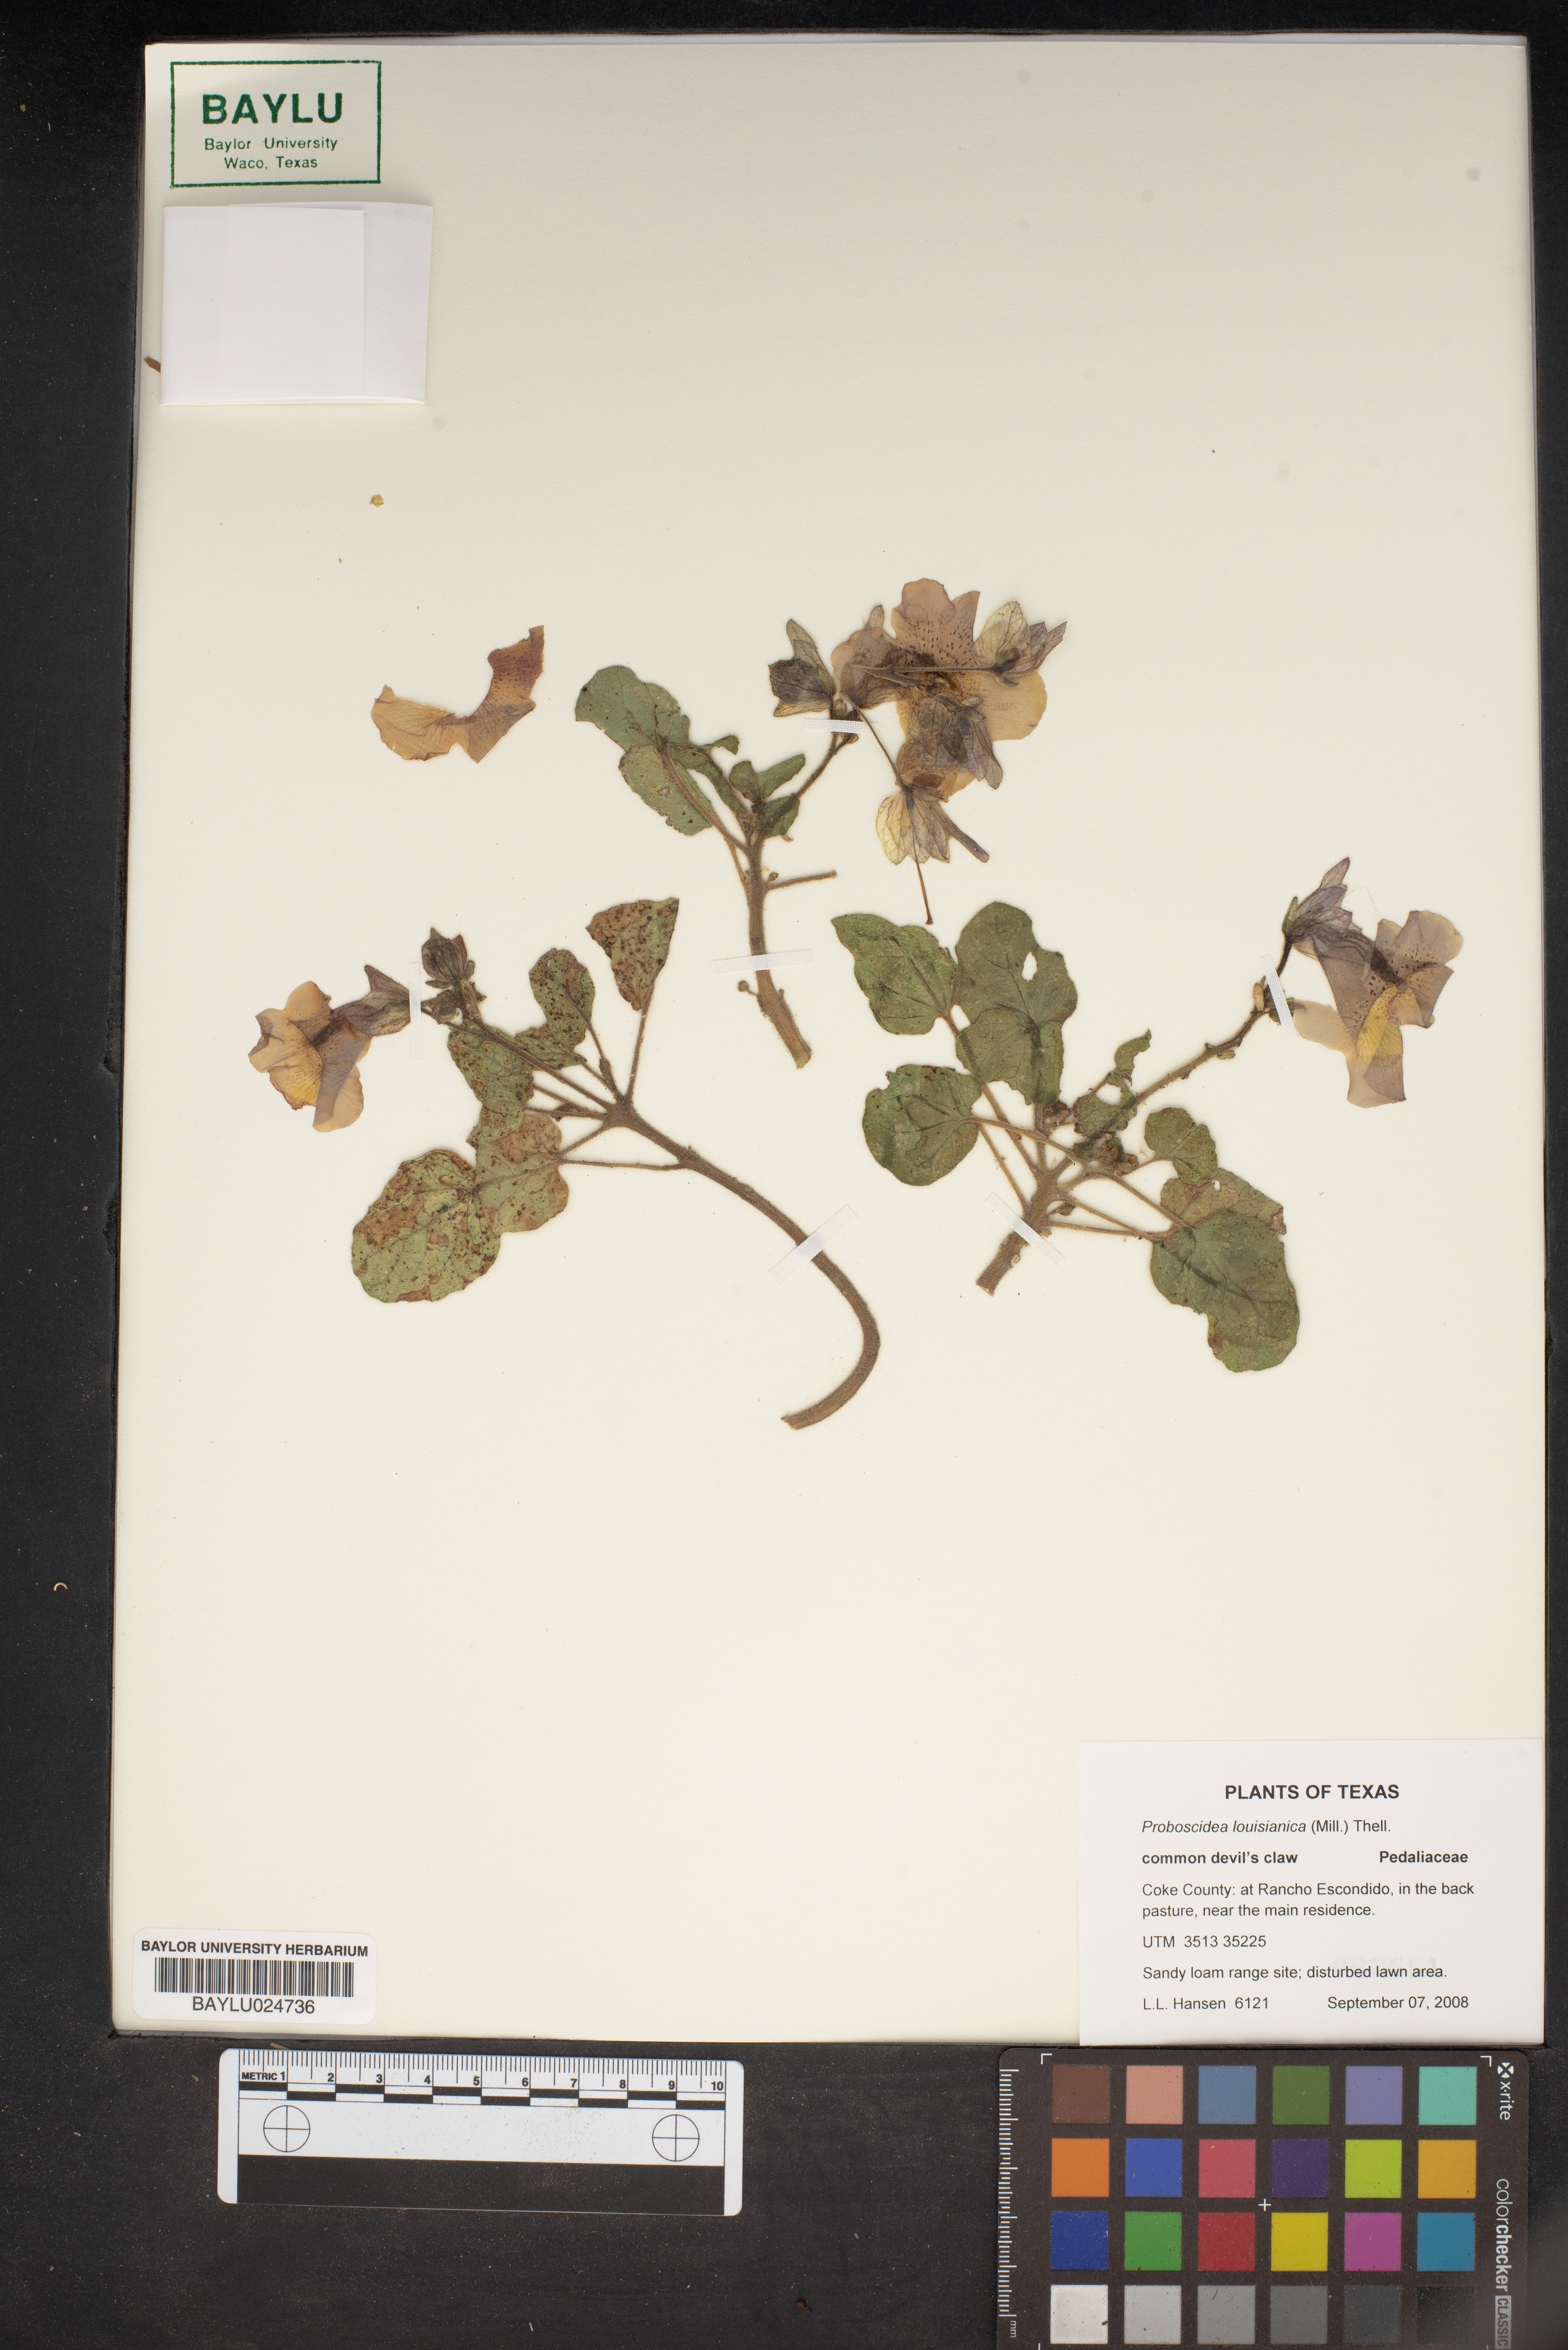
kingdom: Plantae
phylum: Tracheophyta
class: Magnoliopsida
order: Lamiales
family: Martyniaceae
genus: Proboscidea
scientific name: Proboscidea louisianica
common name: Elephant tusks
